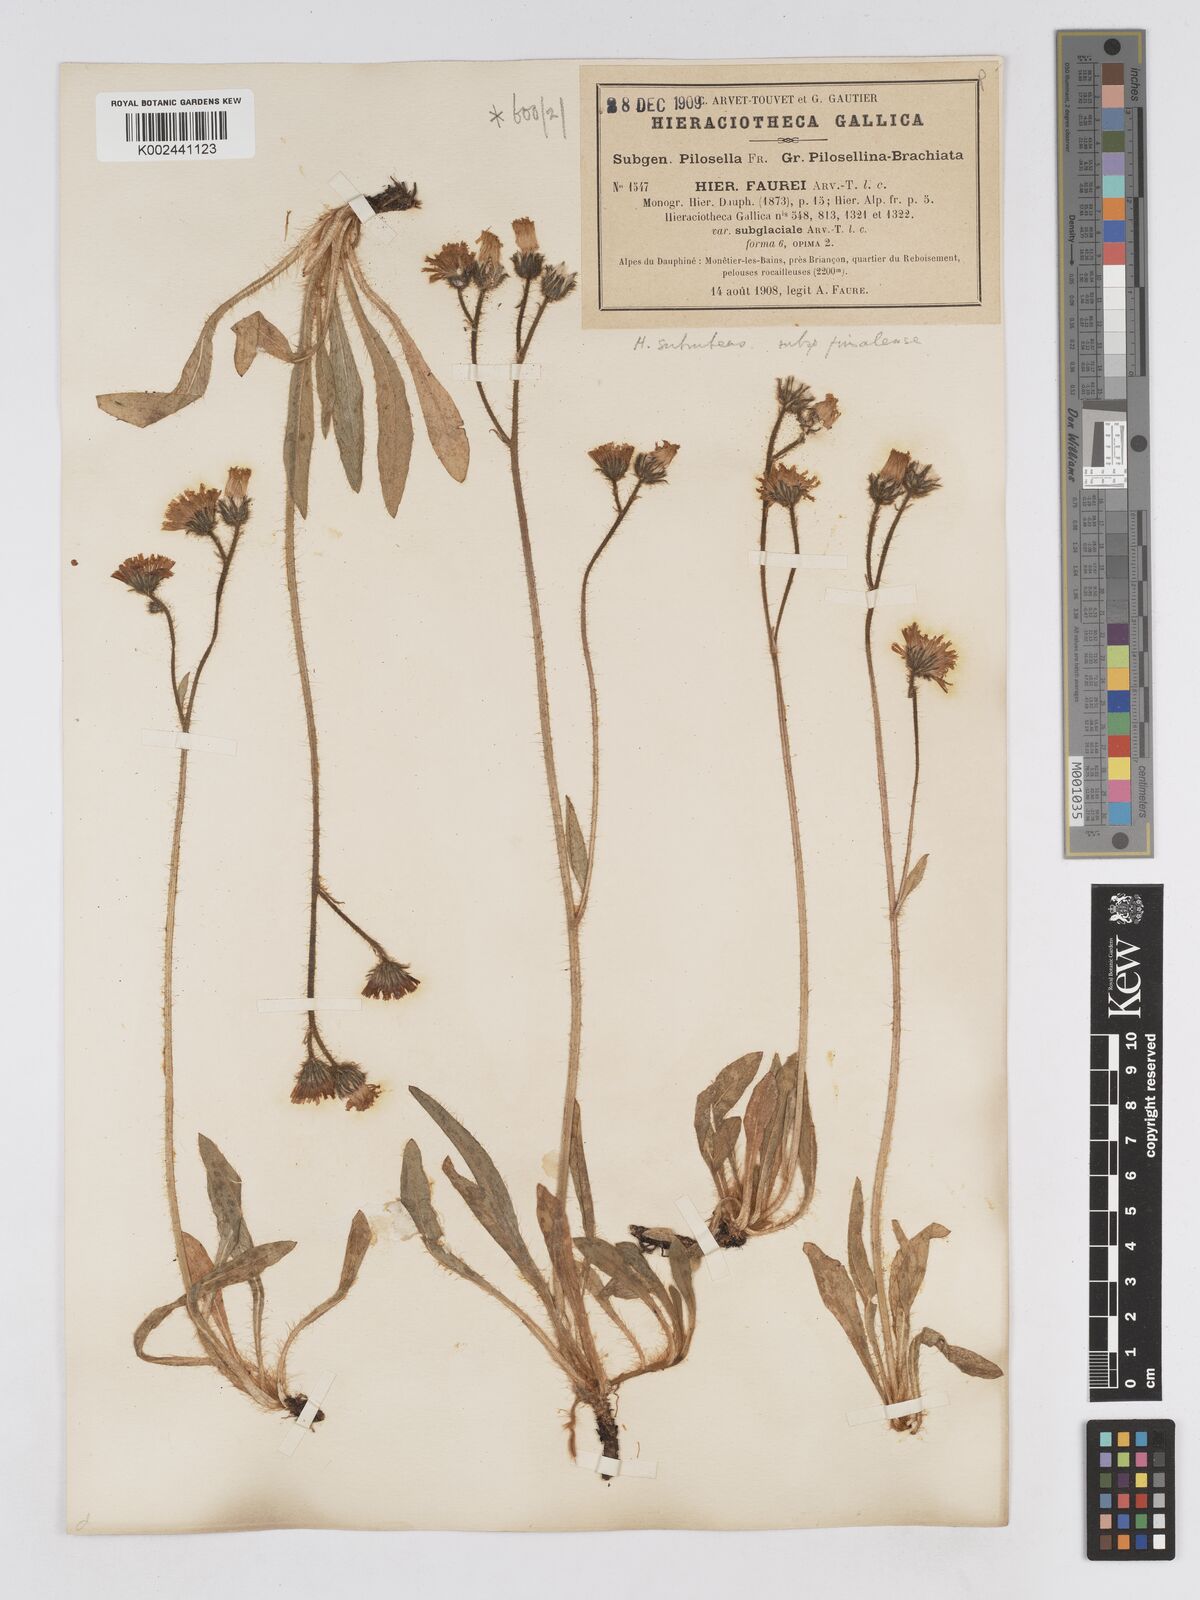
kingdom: Plantae
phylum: Tracheophyta
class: Magnoliopsida
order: Asterales
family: Asteraceae
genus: Pilosella
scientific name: Pilosella subrubens
